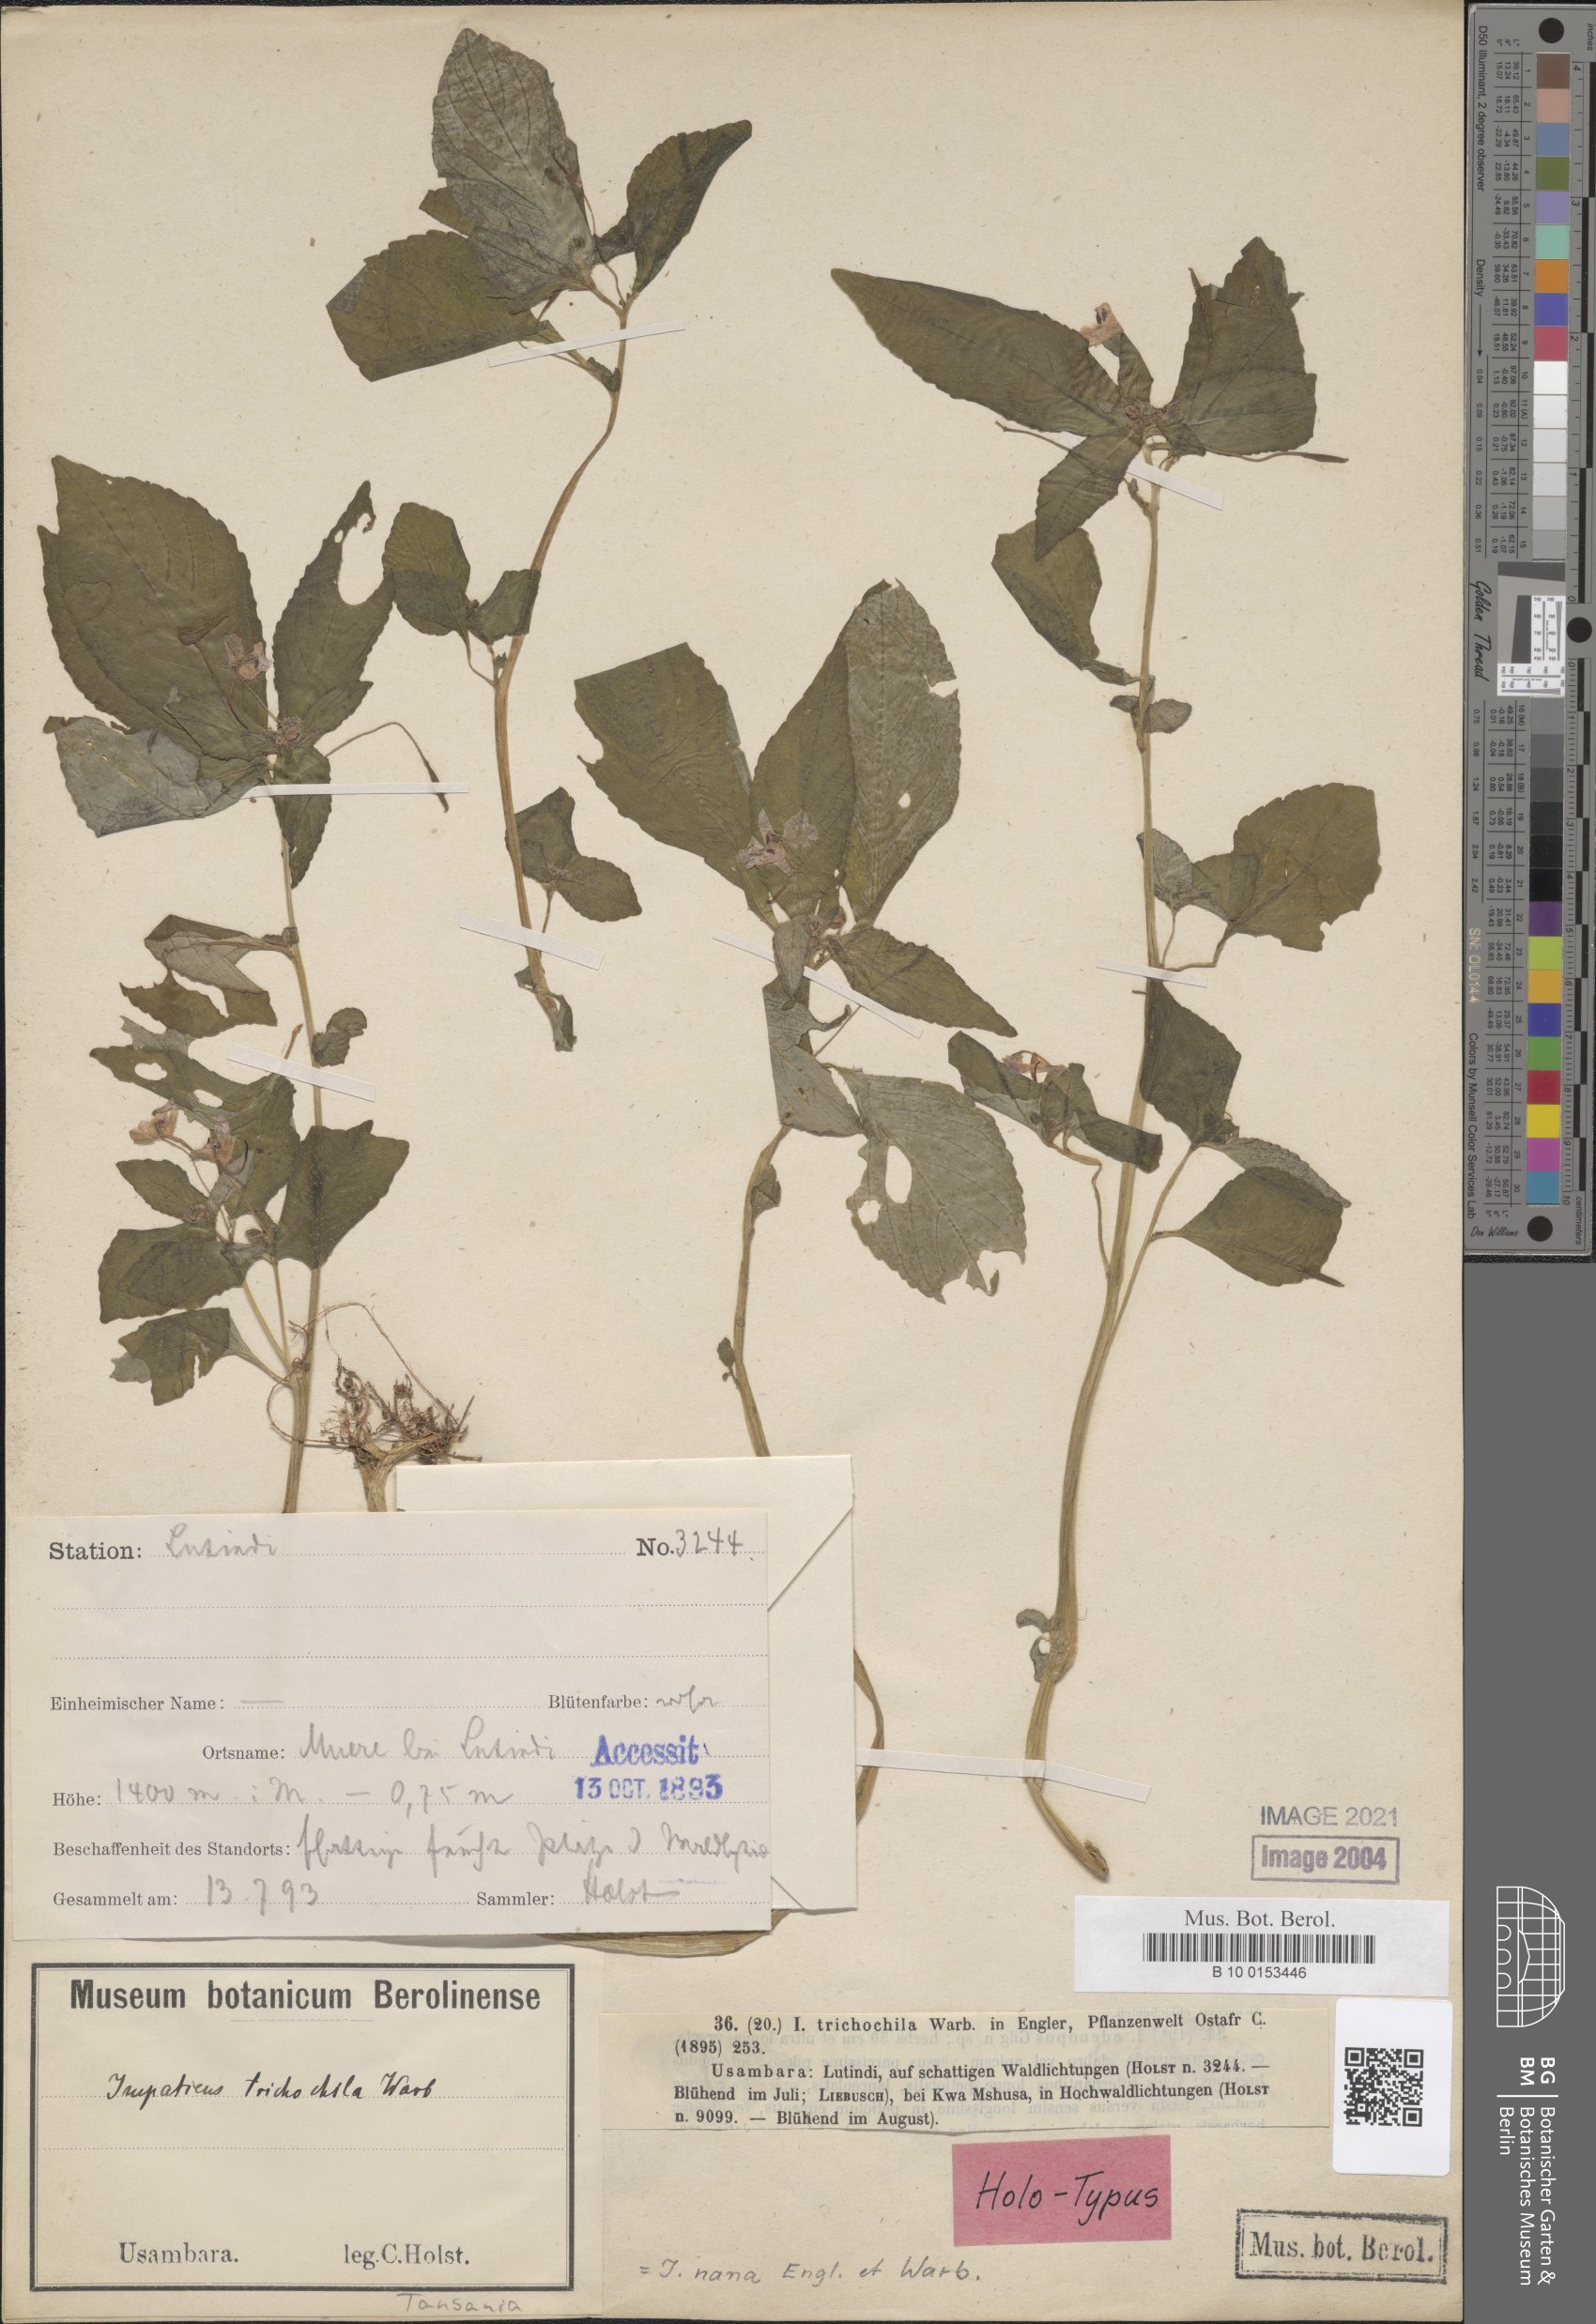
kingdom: Plantae
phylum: Tracheophyta
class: Magnoliopsida
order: Ericales
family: Balsaminaceae
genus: Impatiens
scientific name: Impatiens nana
